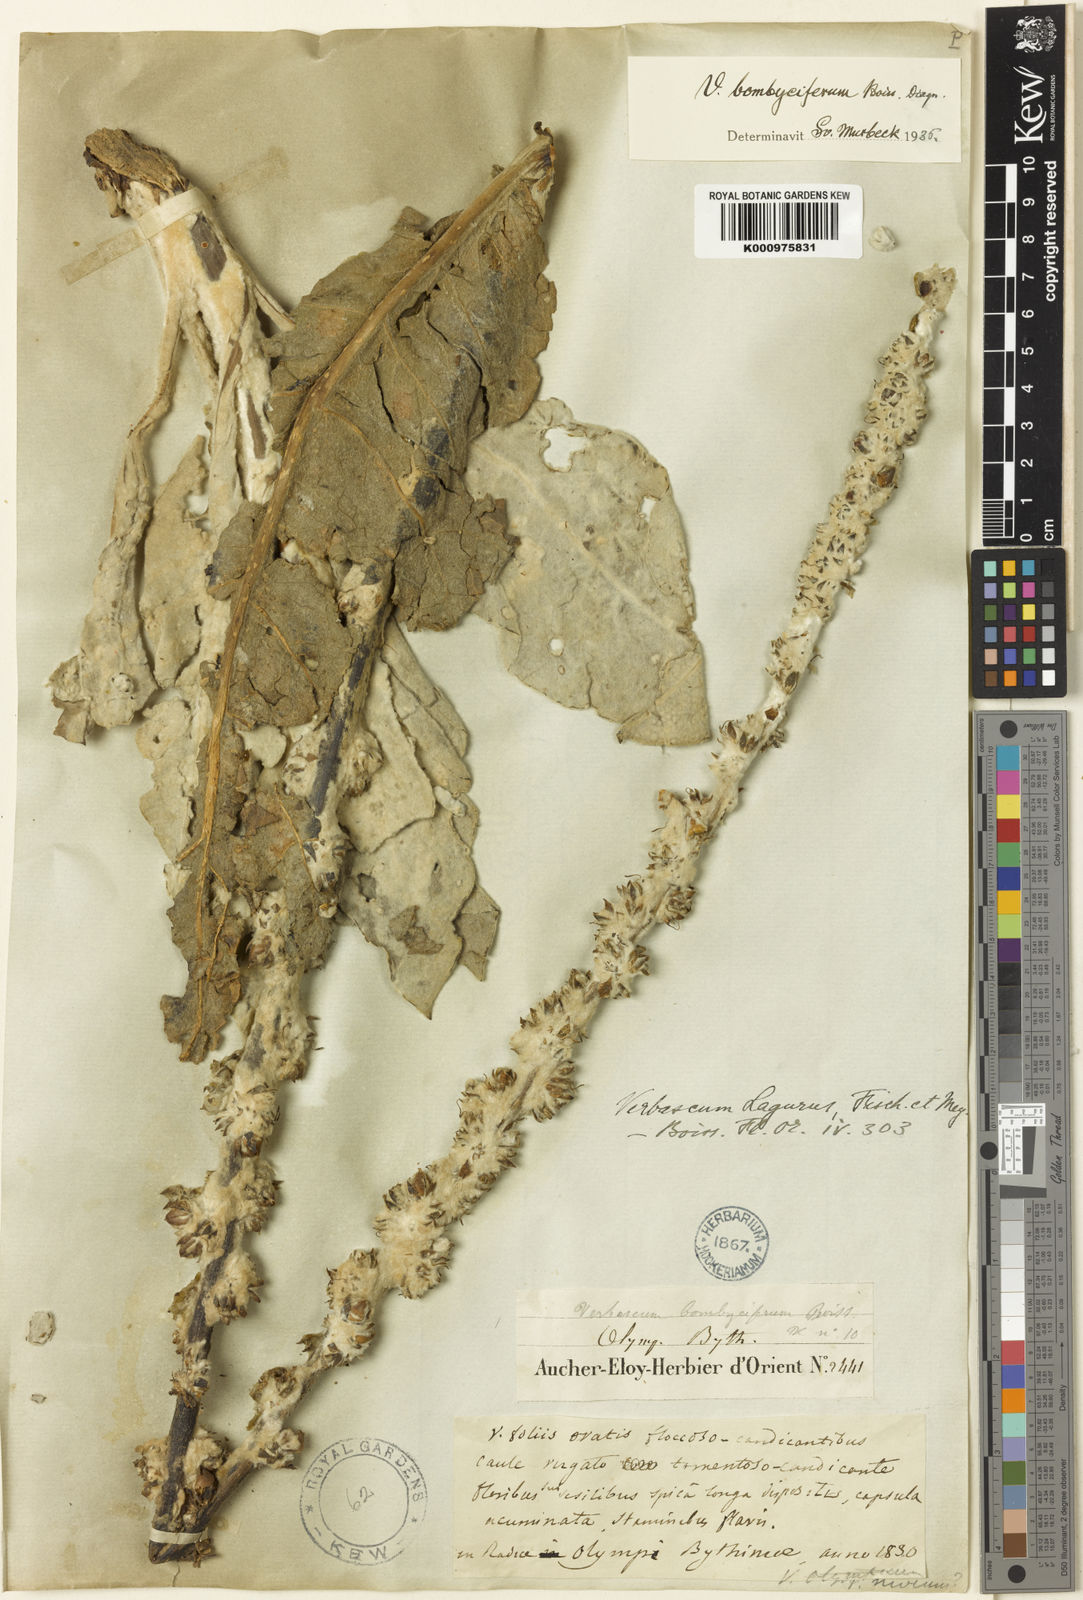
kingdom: Plantae
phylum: Tracheophyta
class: Magnoliopsida
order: Lamiales
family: Scrophulariaceae
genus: Verbascum
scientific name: Verbascum bombyciferum
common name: Broussa mullein
